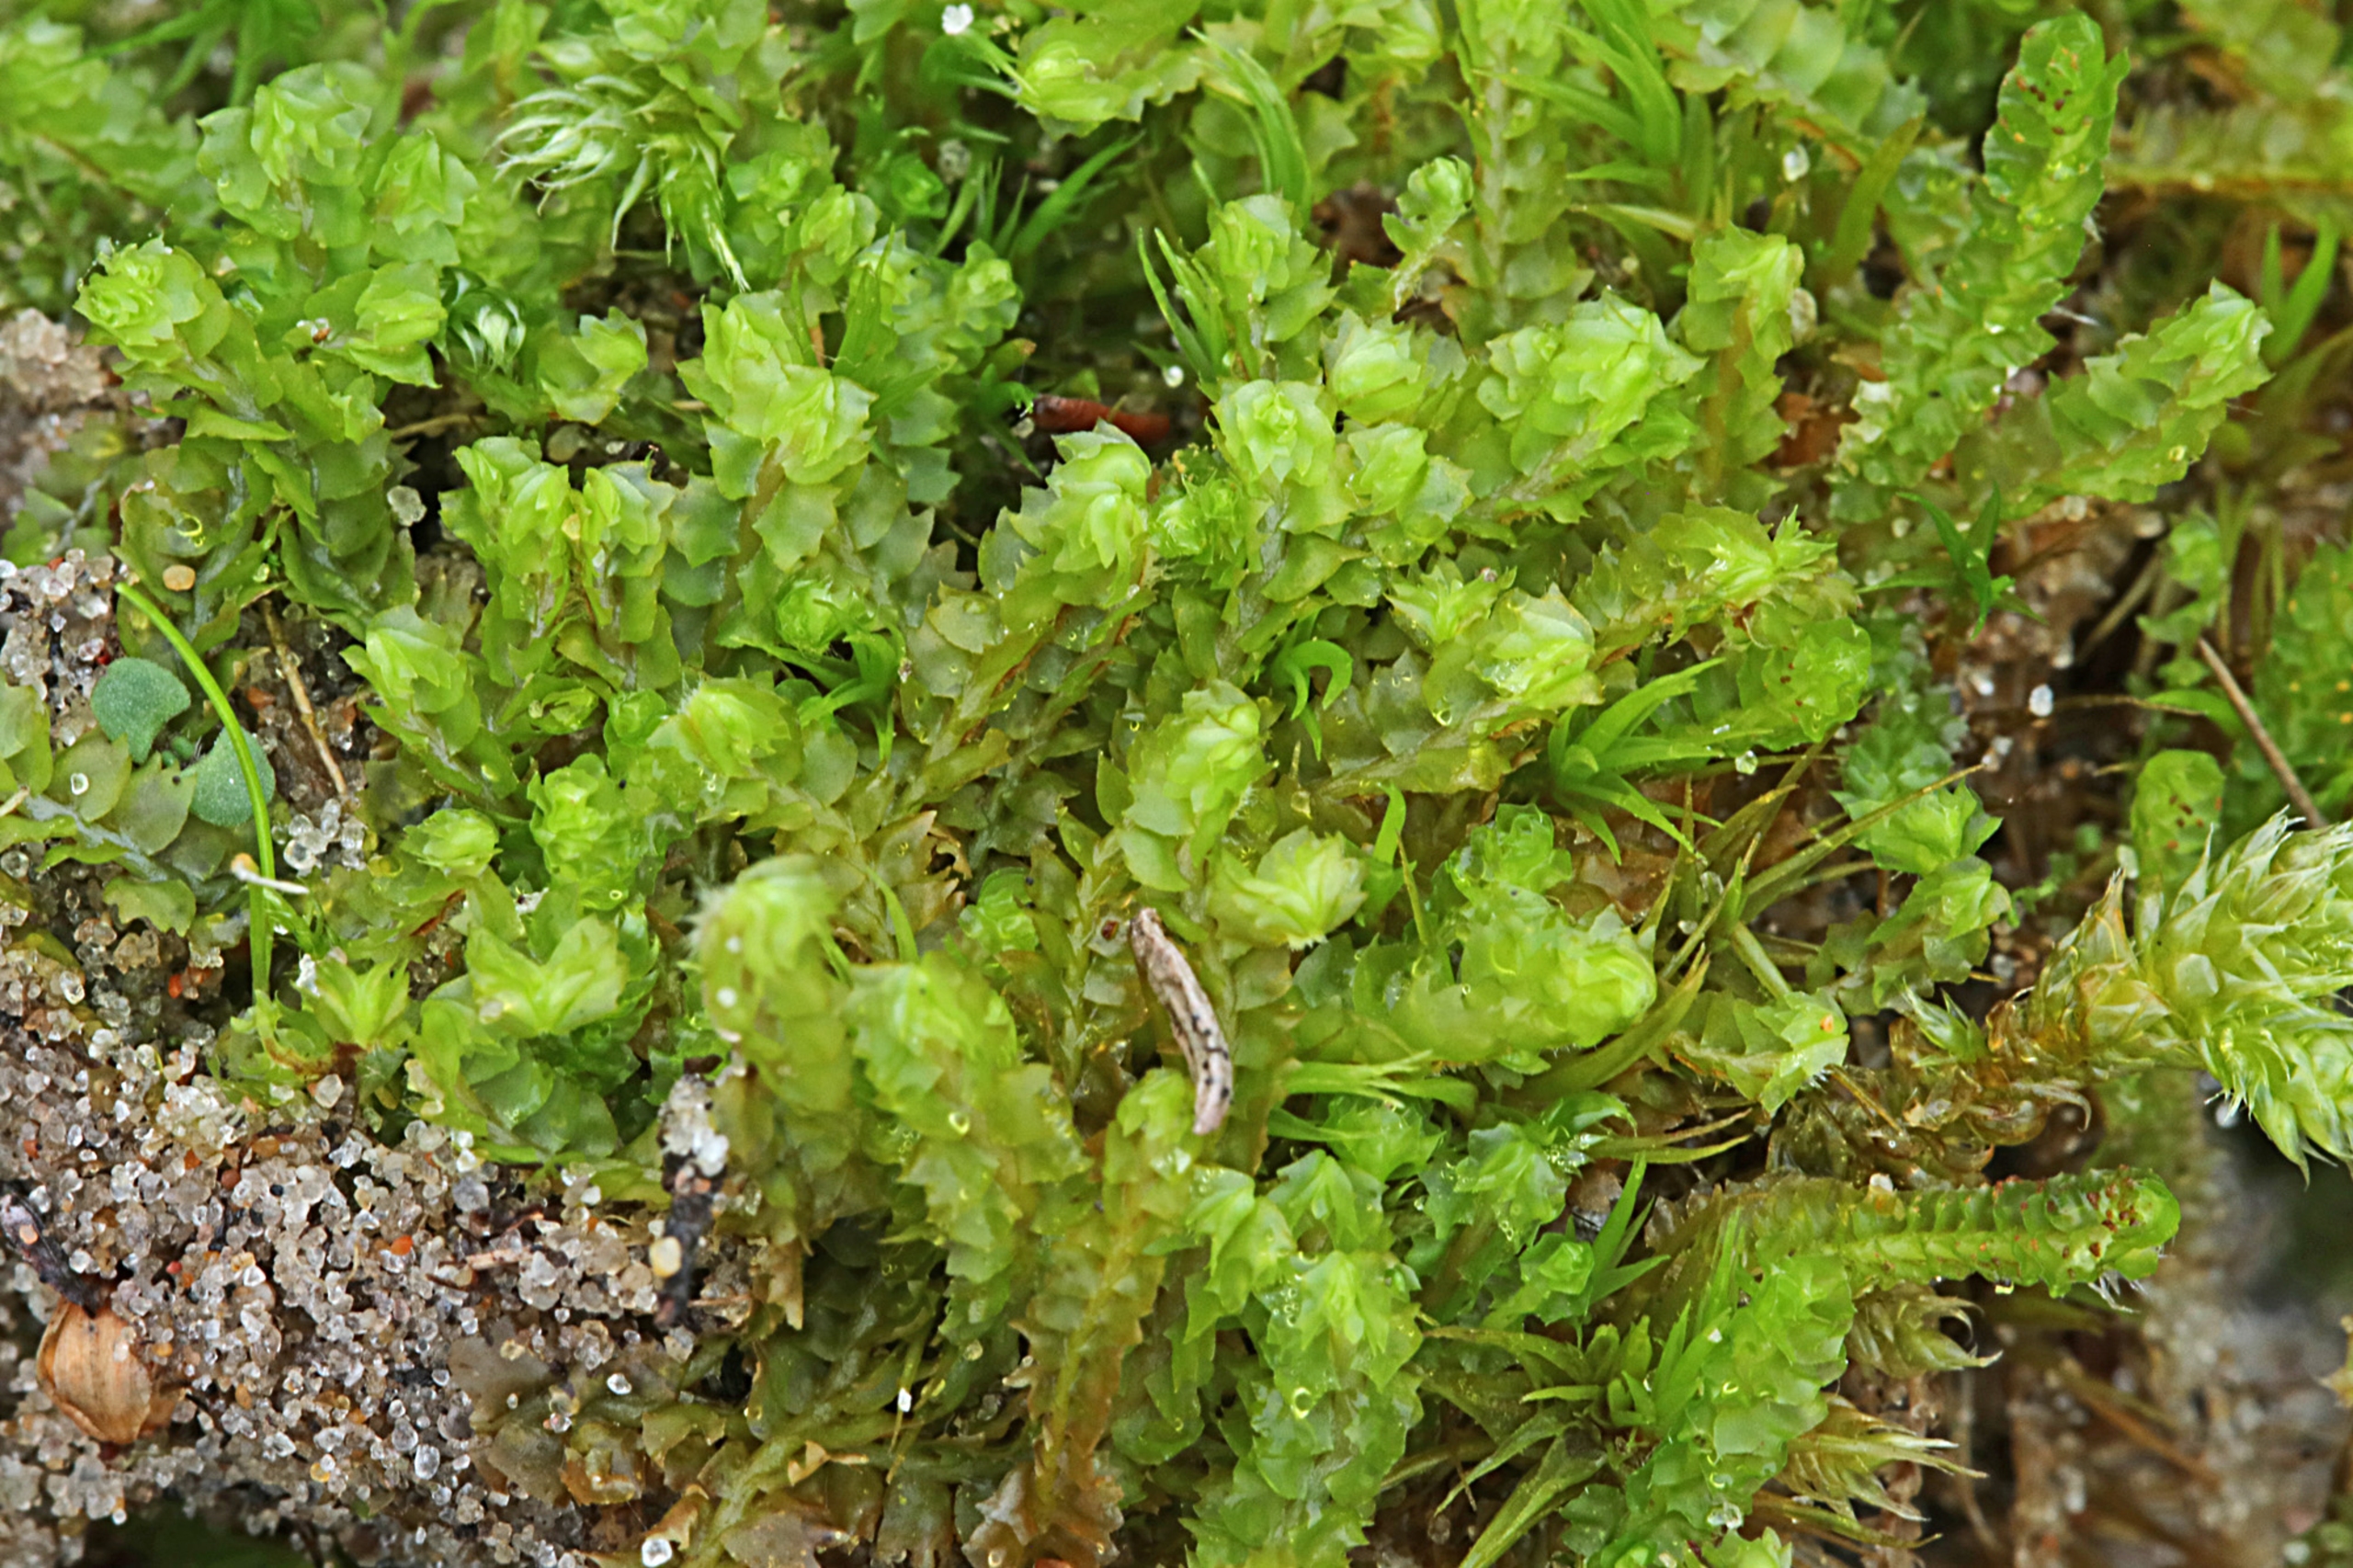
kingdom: Plantae
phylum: Marchantiophyta
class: Jungermanniopsida
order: Jungermanniales
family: Anastrophyllaceae
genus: Barbilophozia
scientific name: Barbilophozia barbata
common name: Skægget flerfligmos
